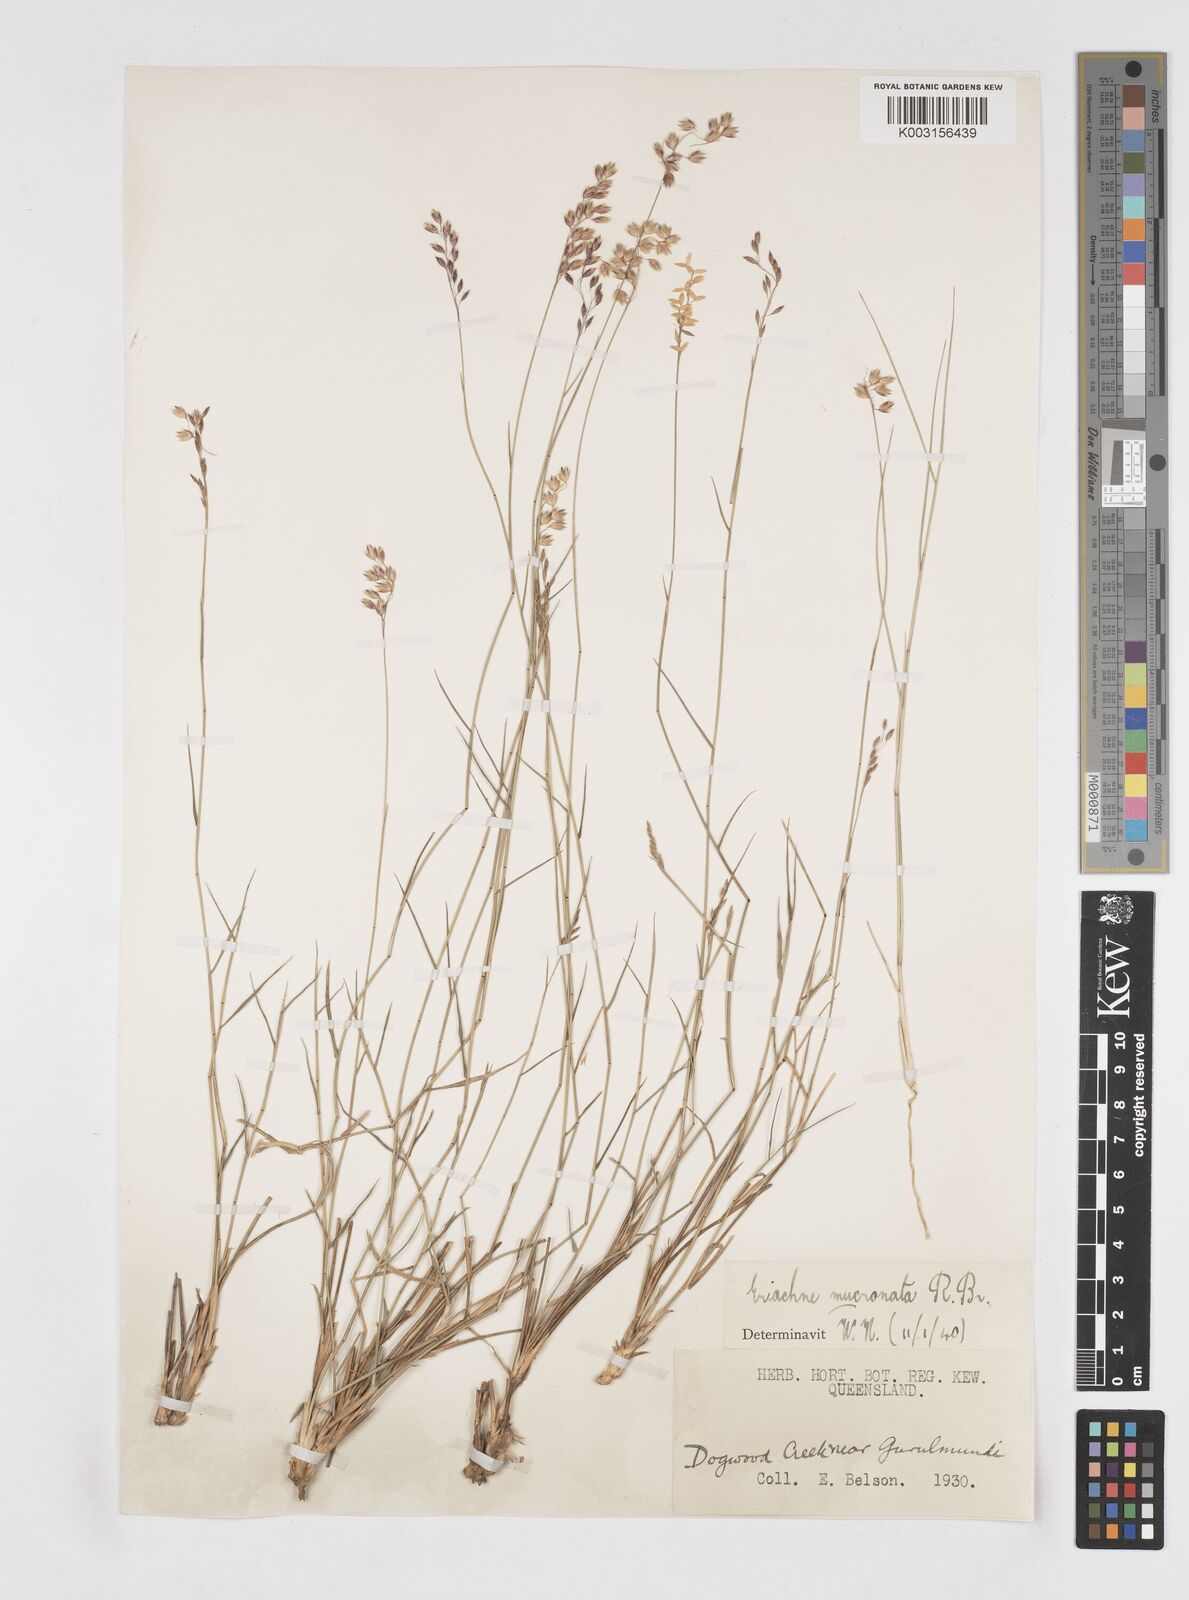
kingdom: Plantae
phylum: Tracheophyta
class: Liliopsida
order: Poales
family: Poaceae
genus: Eriachne
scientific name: Eriachne mucronata
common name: Mountain wanderrie grass
